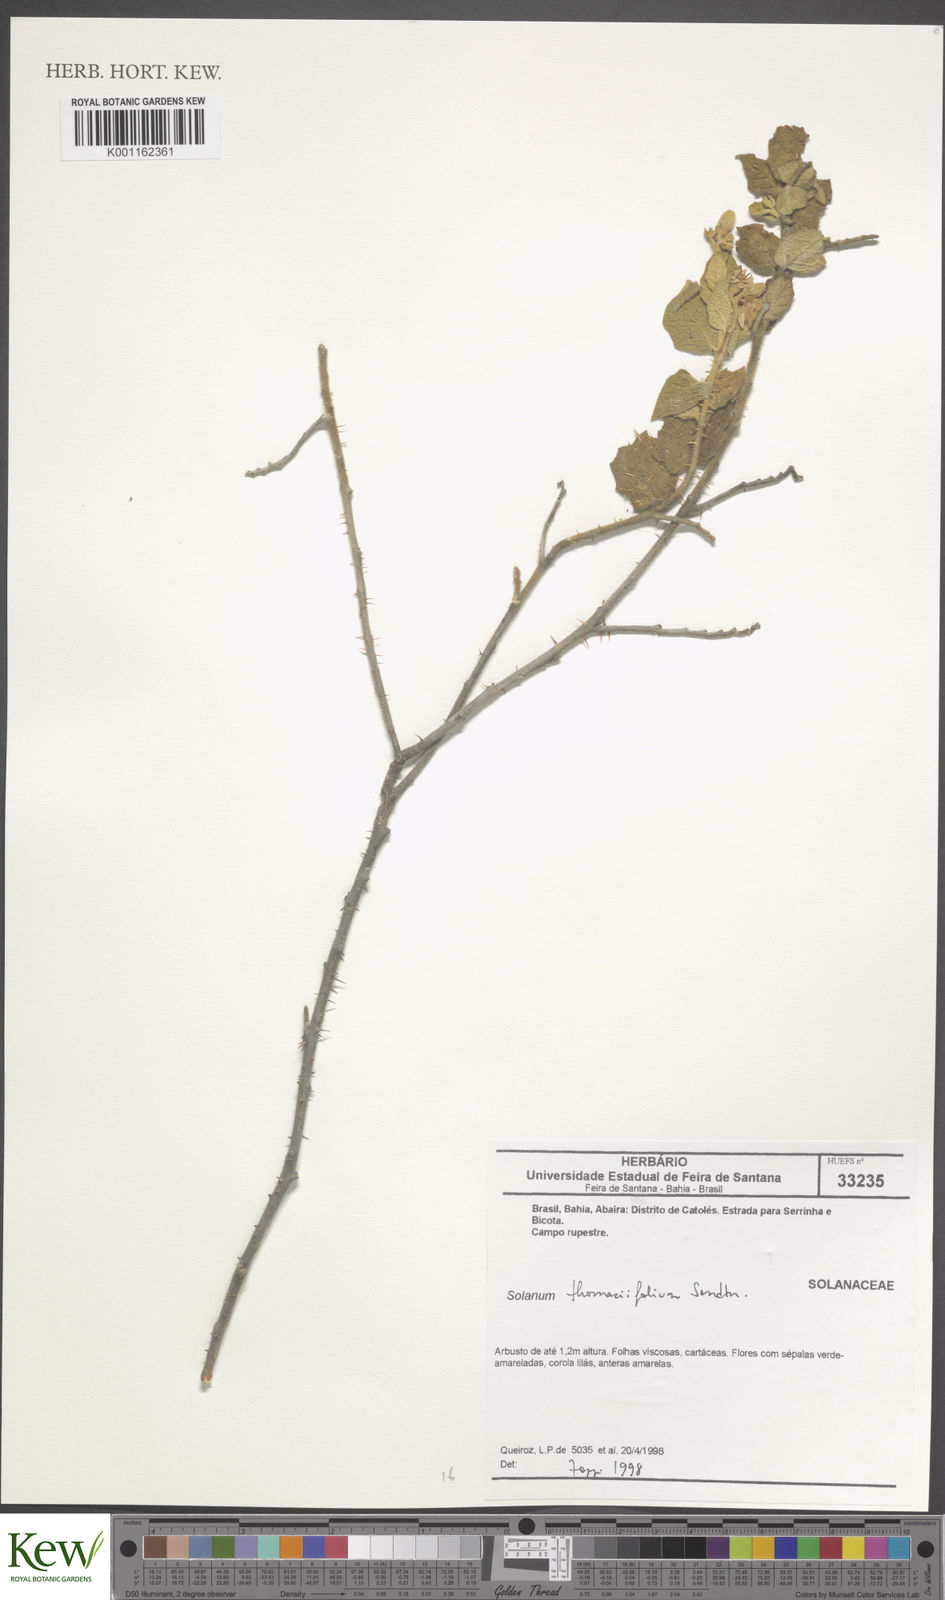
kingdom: Plantae
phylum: Tracheophyta
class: Magnoliopsida
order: Solanales
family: Solanaceae
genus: Solanum
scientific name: Solanum thomasiifolium
